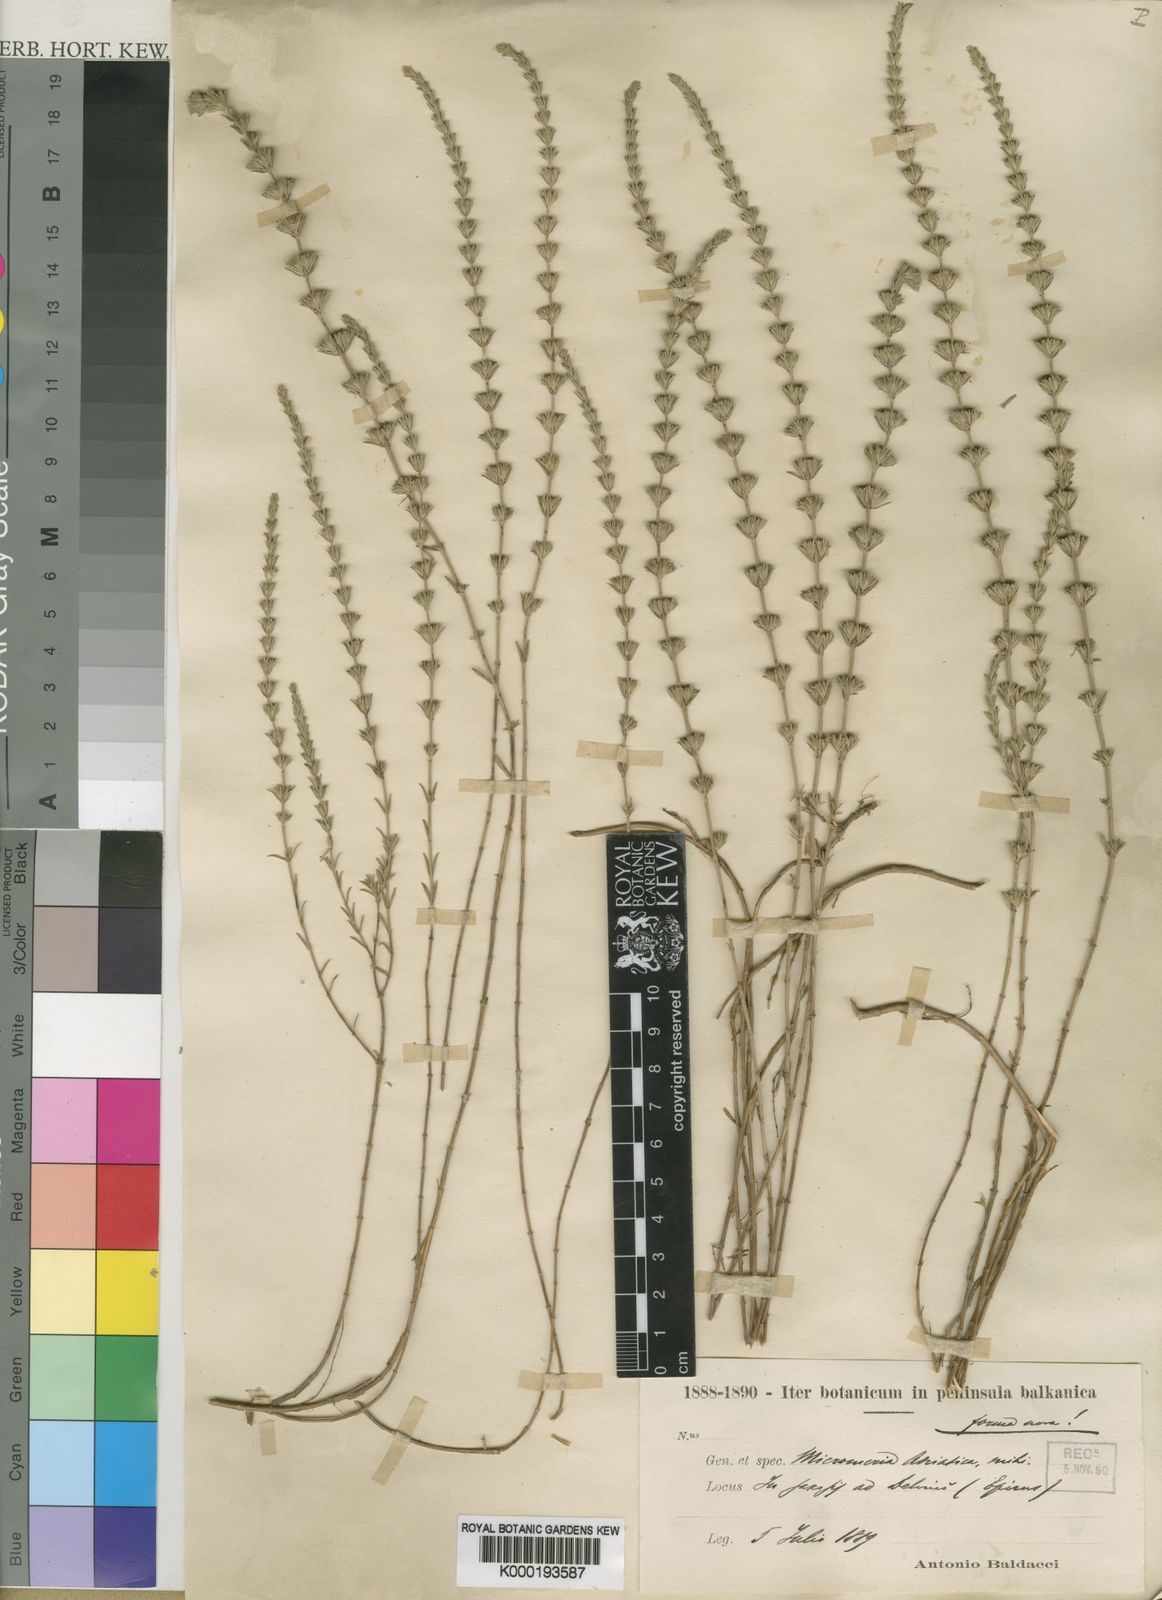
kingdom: Plantae
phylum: Tracheophyta
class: Magnoliopsida
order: Lamiales
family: Lamiaceae
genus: Micromeria
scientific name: Micromeria juliana
